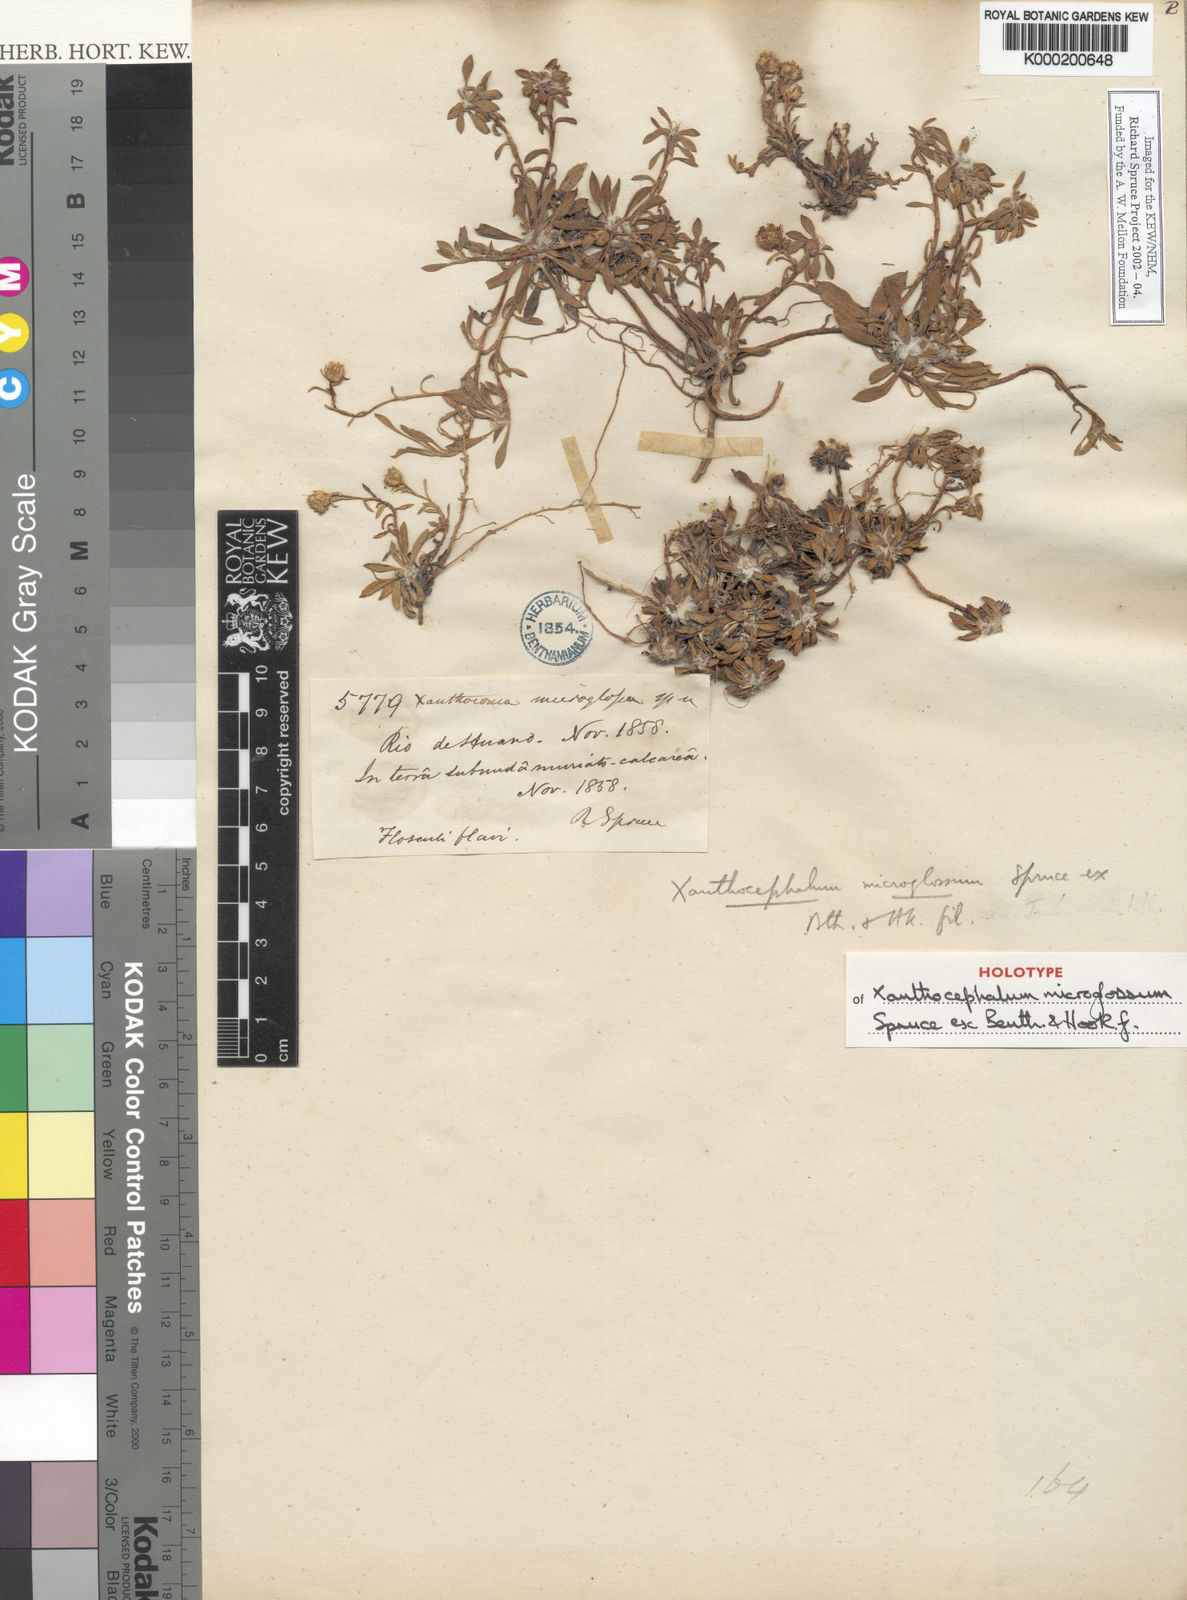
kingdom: Plantae
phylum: Tracheophyta
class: Magnoliopsida
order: Asterales
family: Asteraceae
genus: Xanthocephalum
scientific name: Xanthocephalum humile
